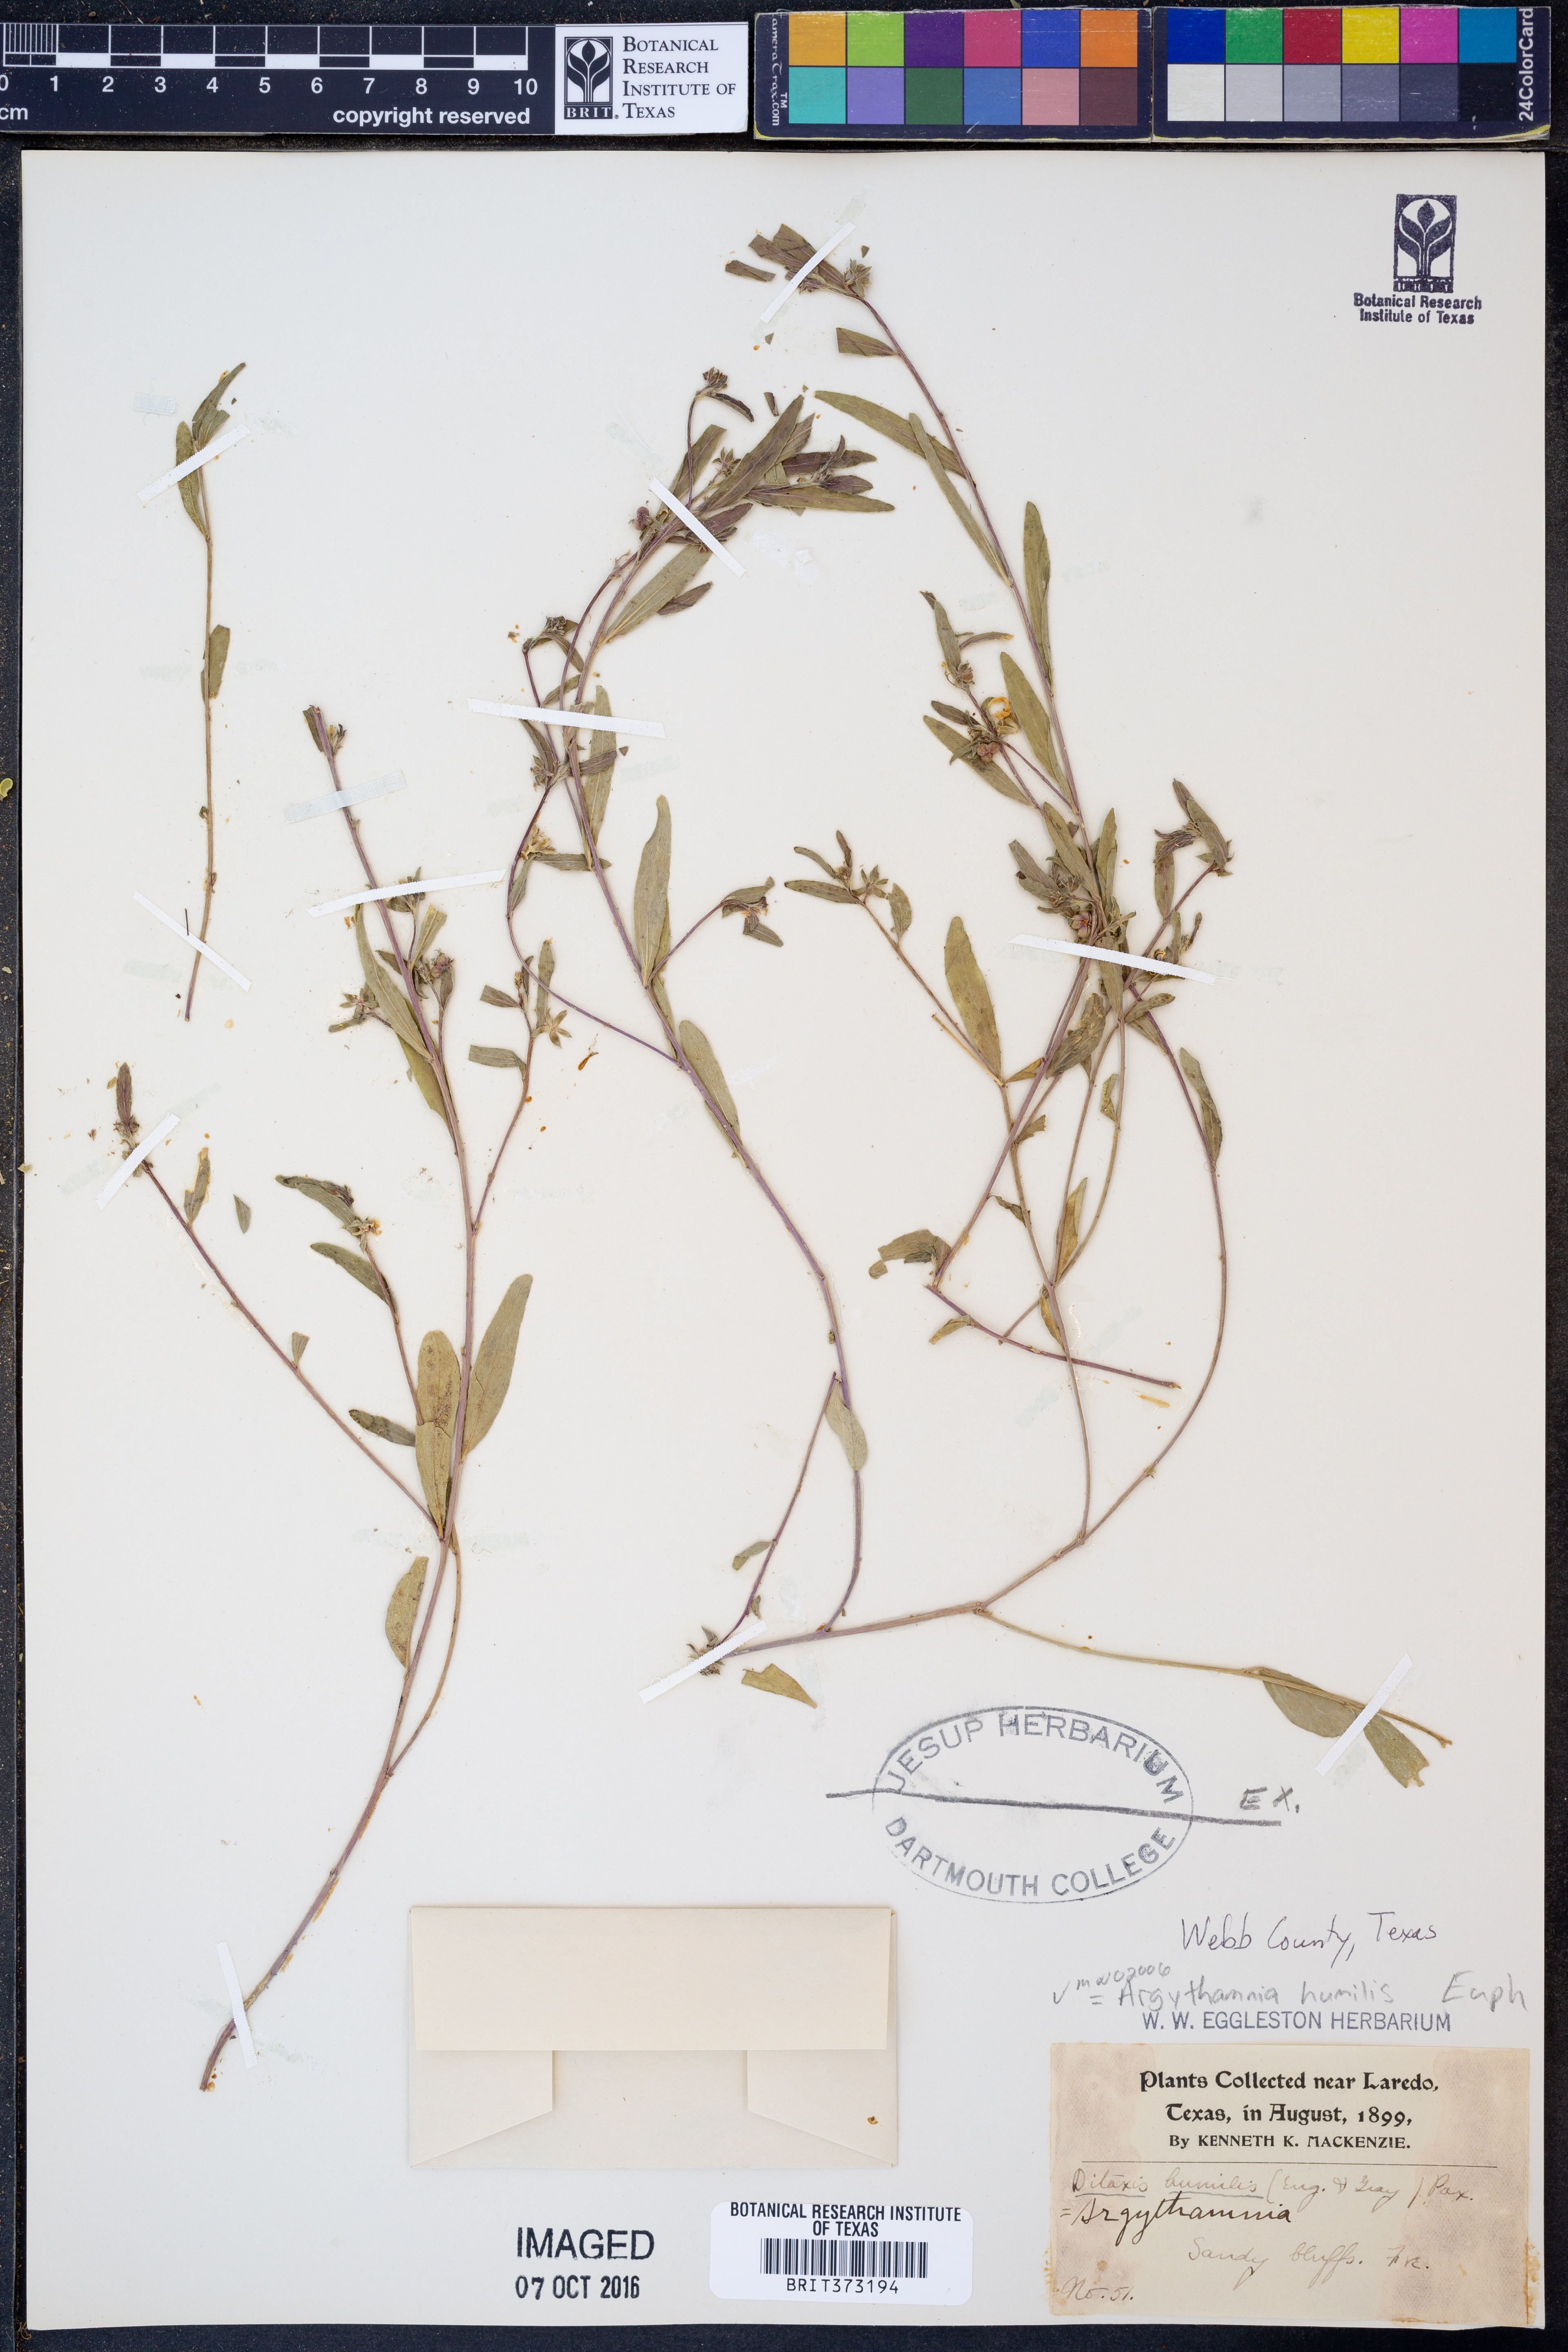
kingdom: Plantae
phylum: Tracheophyta
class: Magnoliopsida
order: Malpighiales
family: Euphorbiaceae
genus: Ditaxis
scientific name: Ditaxis humilis
